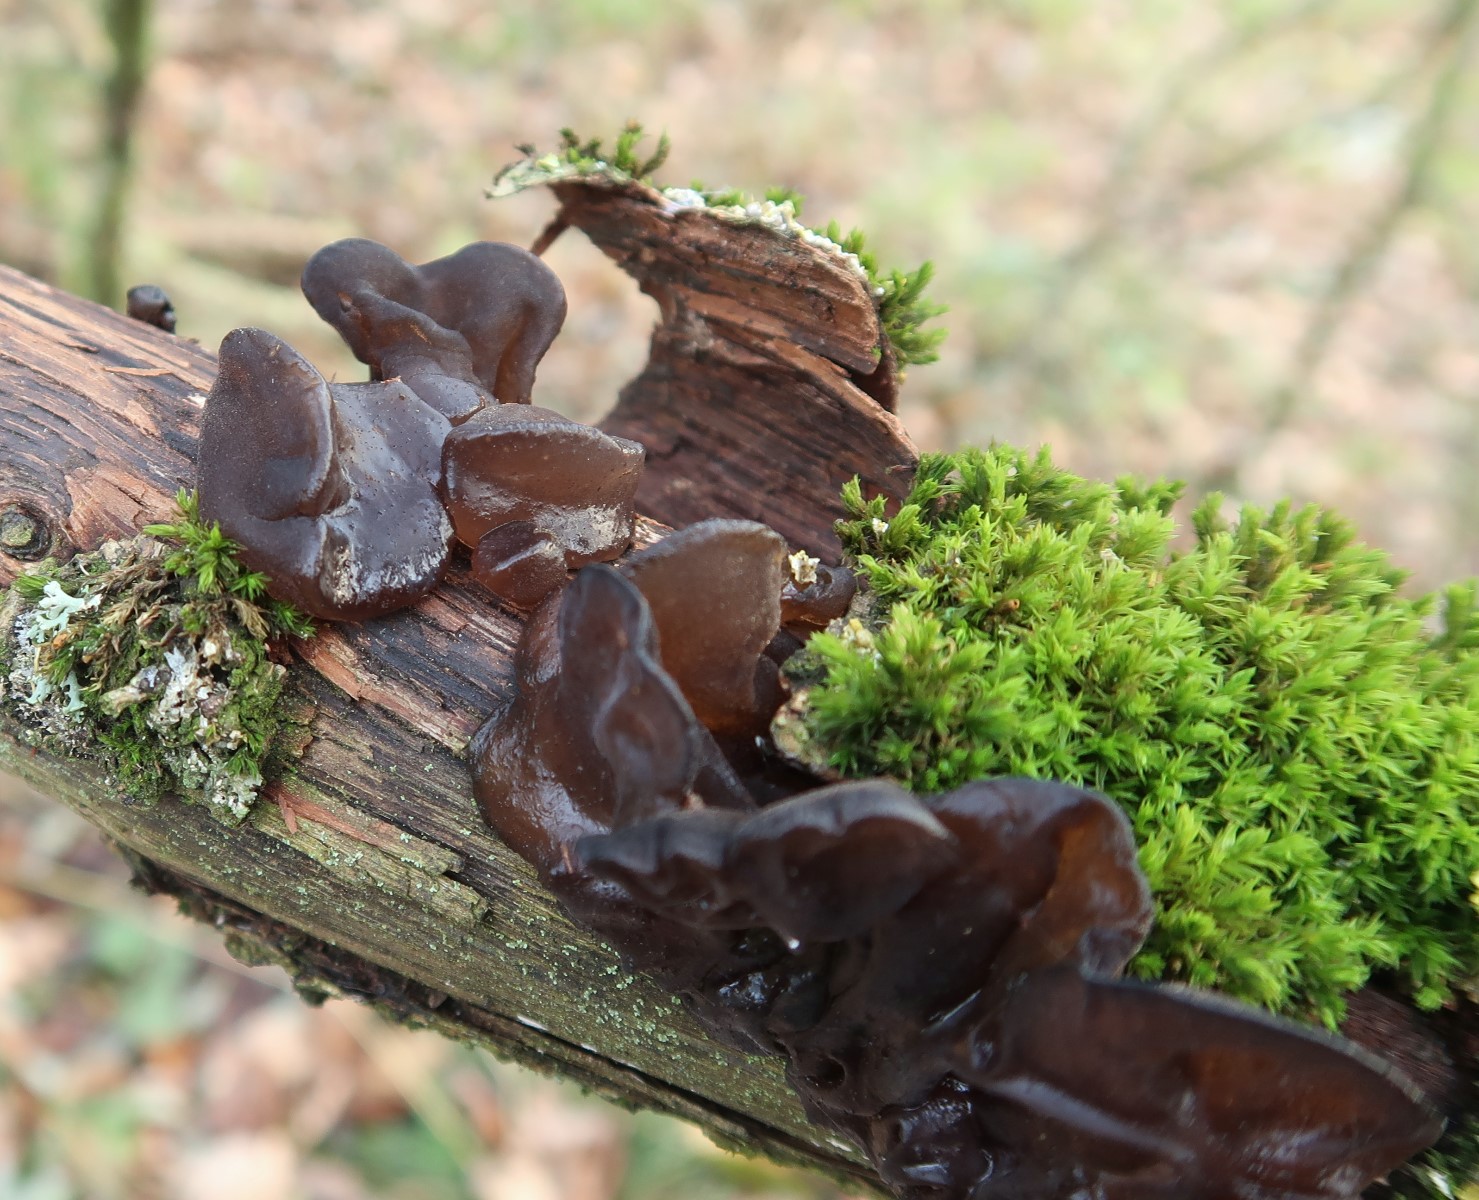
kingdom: Fungi
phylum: Basidiomycota
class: Agaricomycetes
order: Auriculariales
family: Auriculariaceae
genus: Exidia
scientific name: Exidia glandulosa
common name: ege-bævretop
